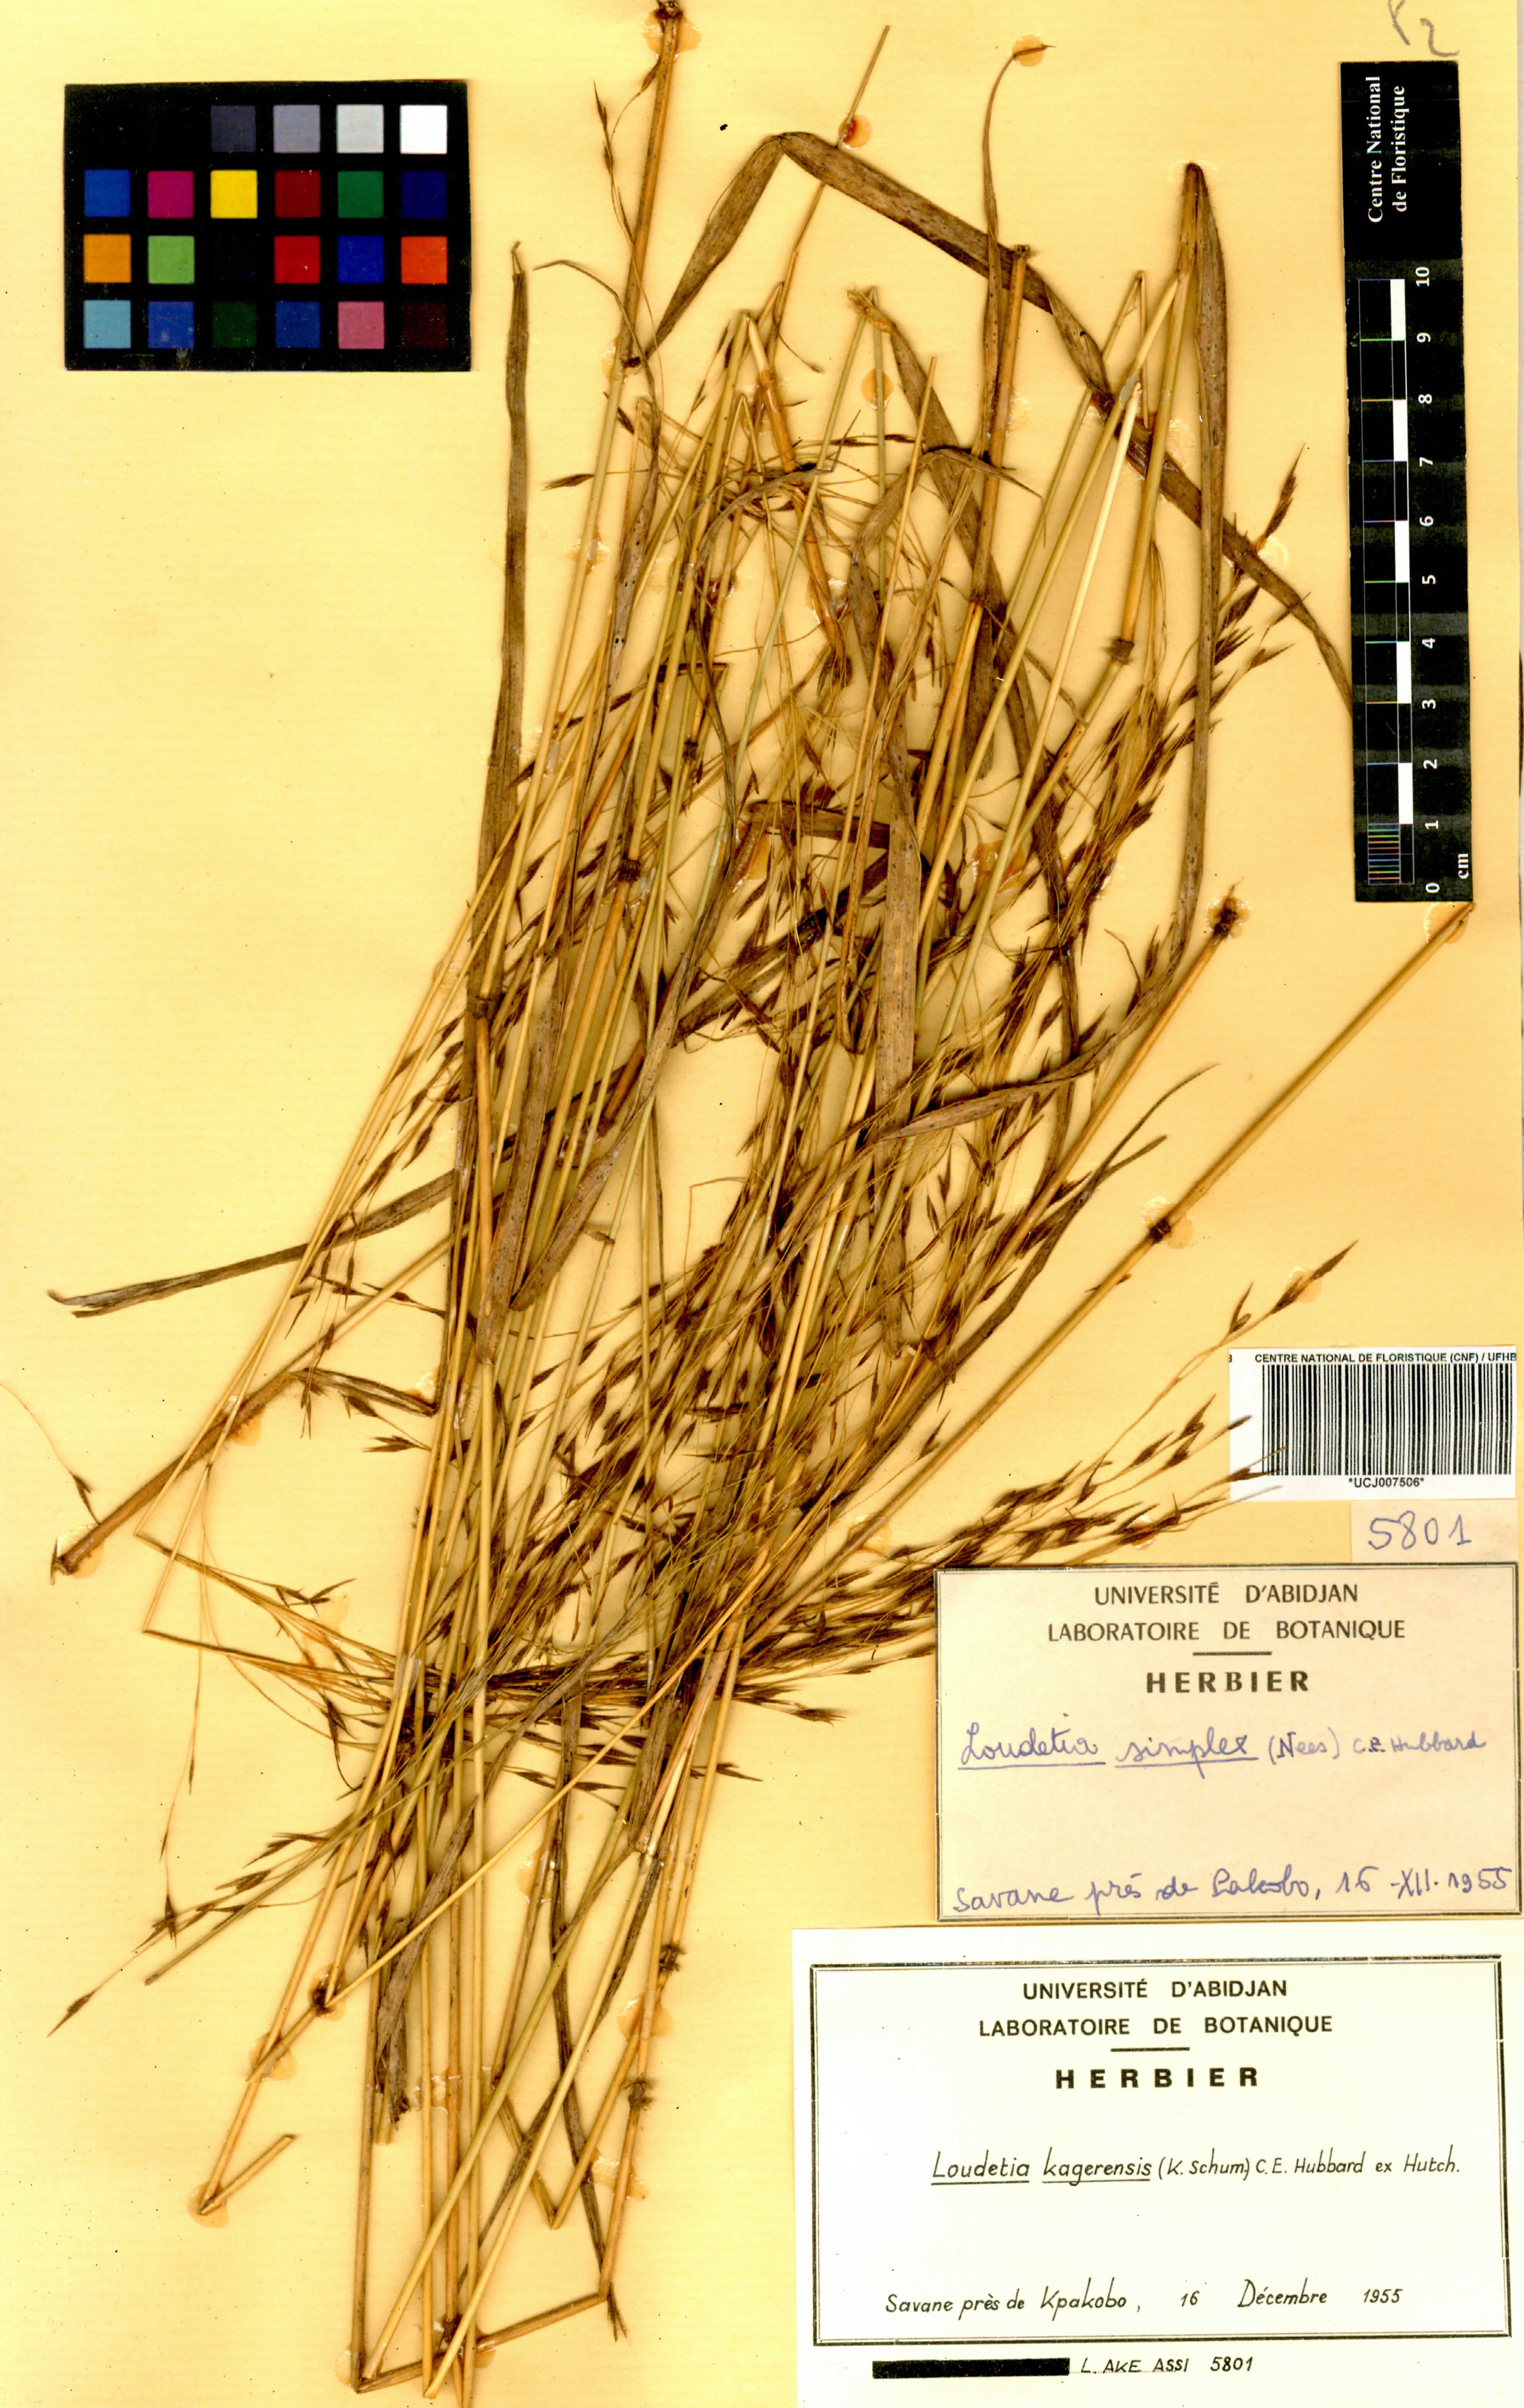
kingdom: Plantae
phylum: Tracheophyta
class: Liliopsida
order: Poales
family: Poaceae
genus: Loudetia
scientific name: Loudetia kagerensis
